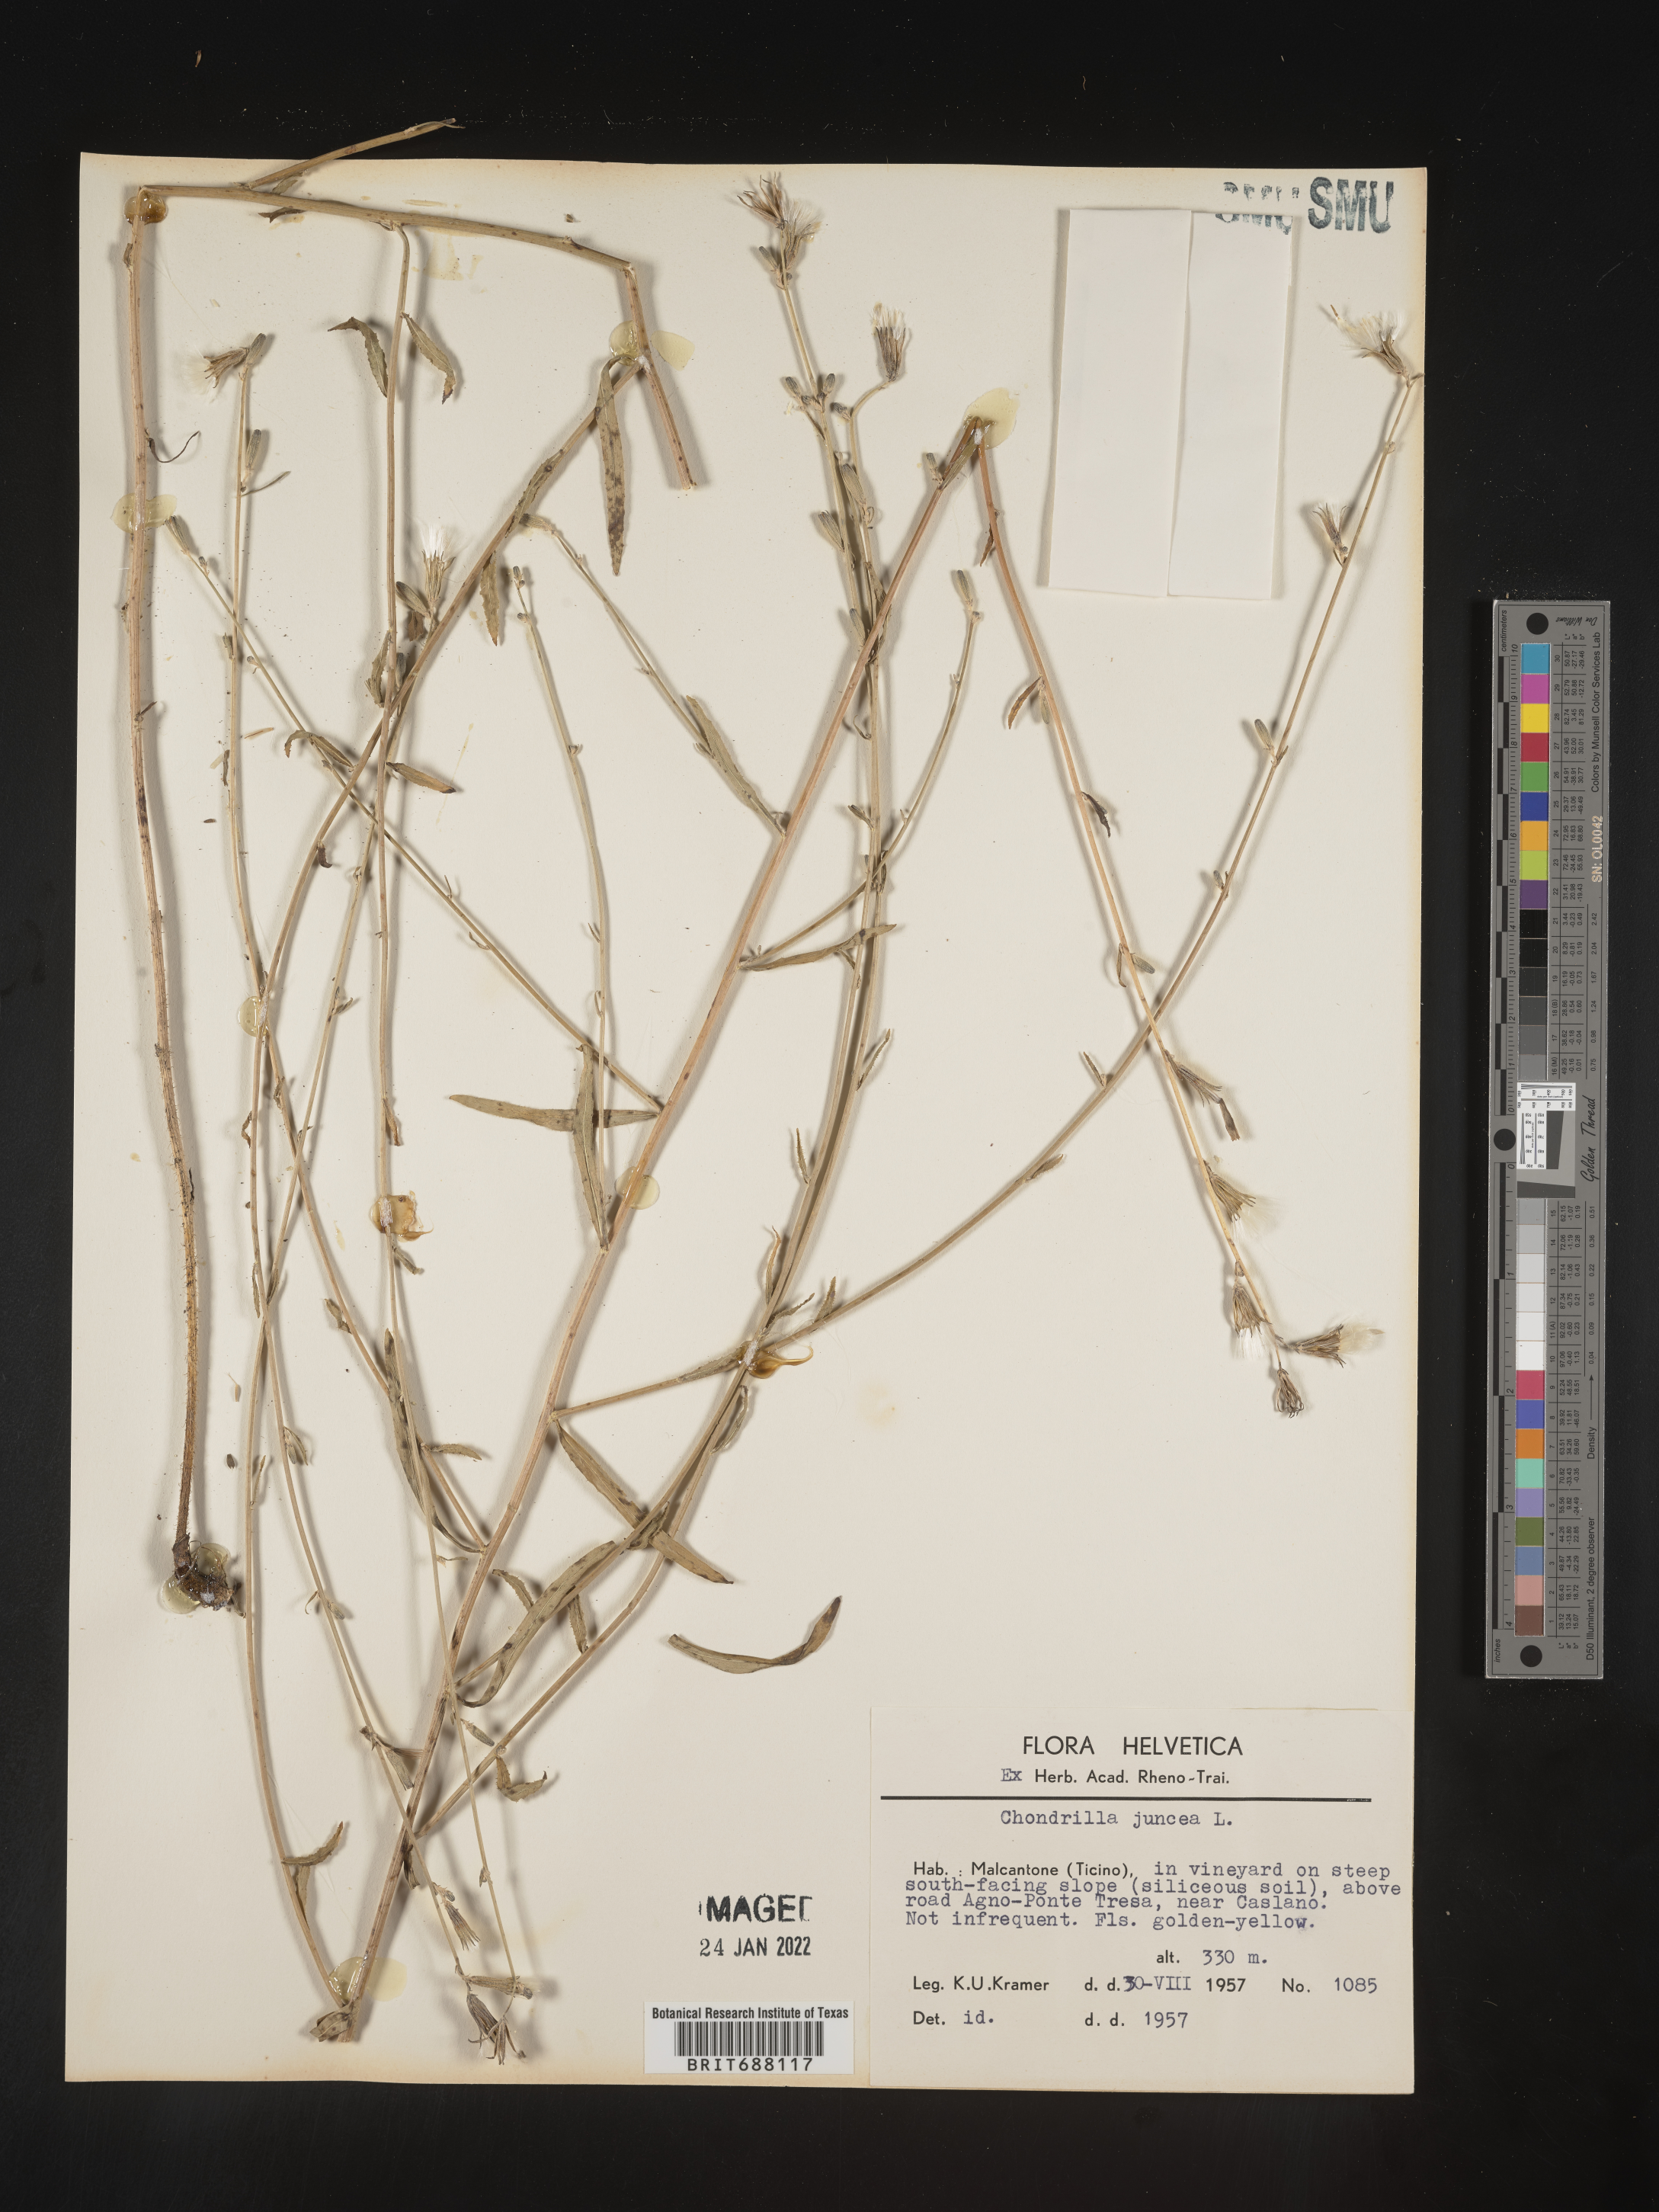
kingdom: Plantae
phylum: Tracheophyta
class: Magnoliopsida
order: Asterales
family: Asteraceae
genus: Chondrilla
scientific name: Chondrilla
